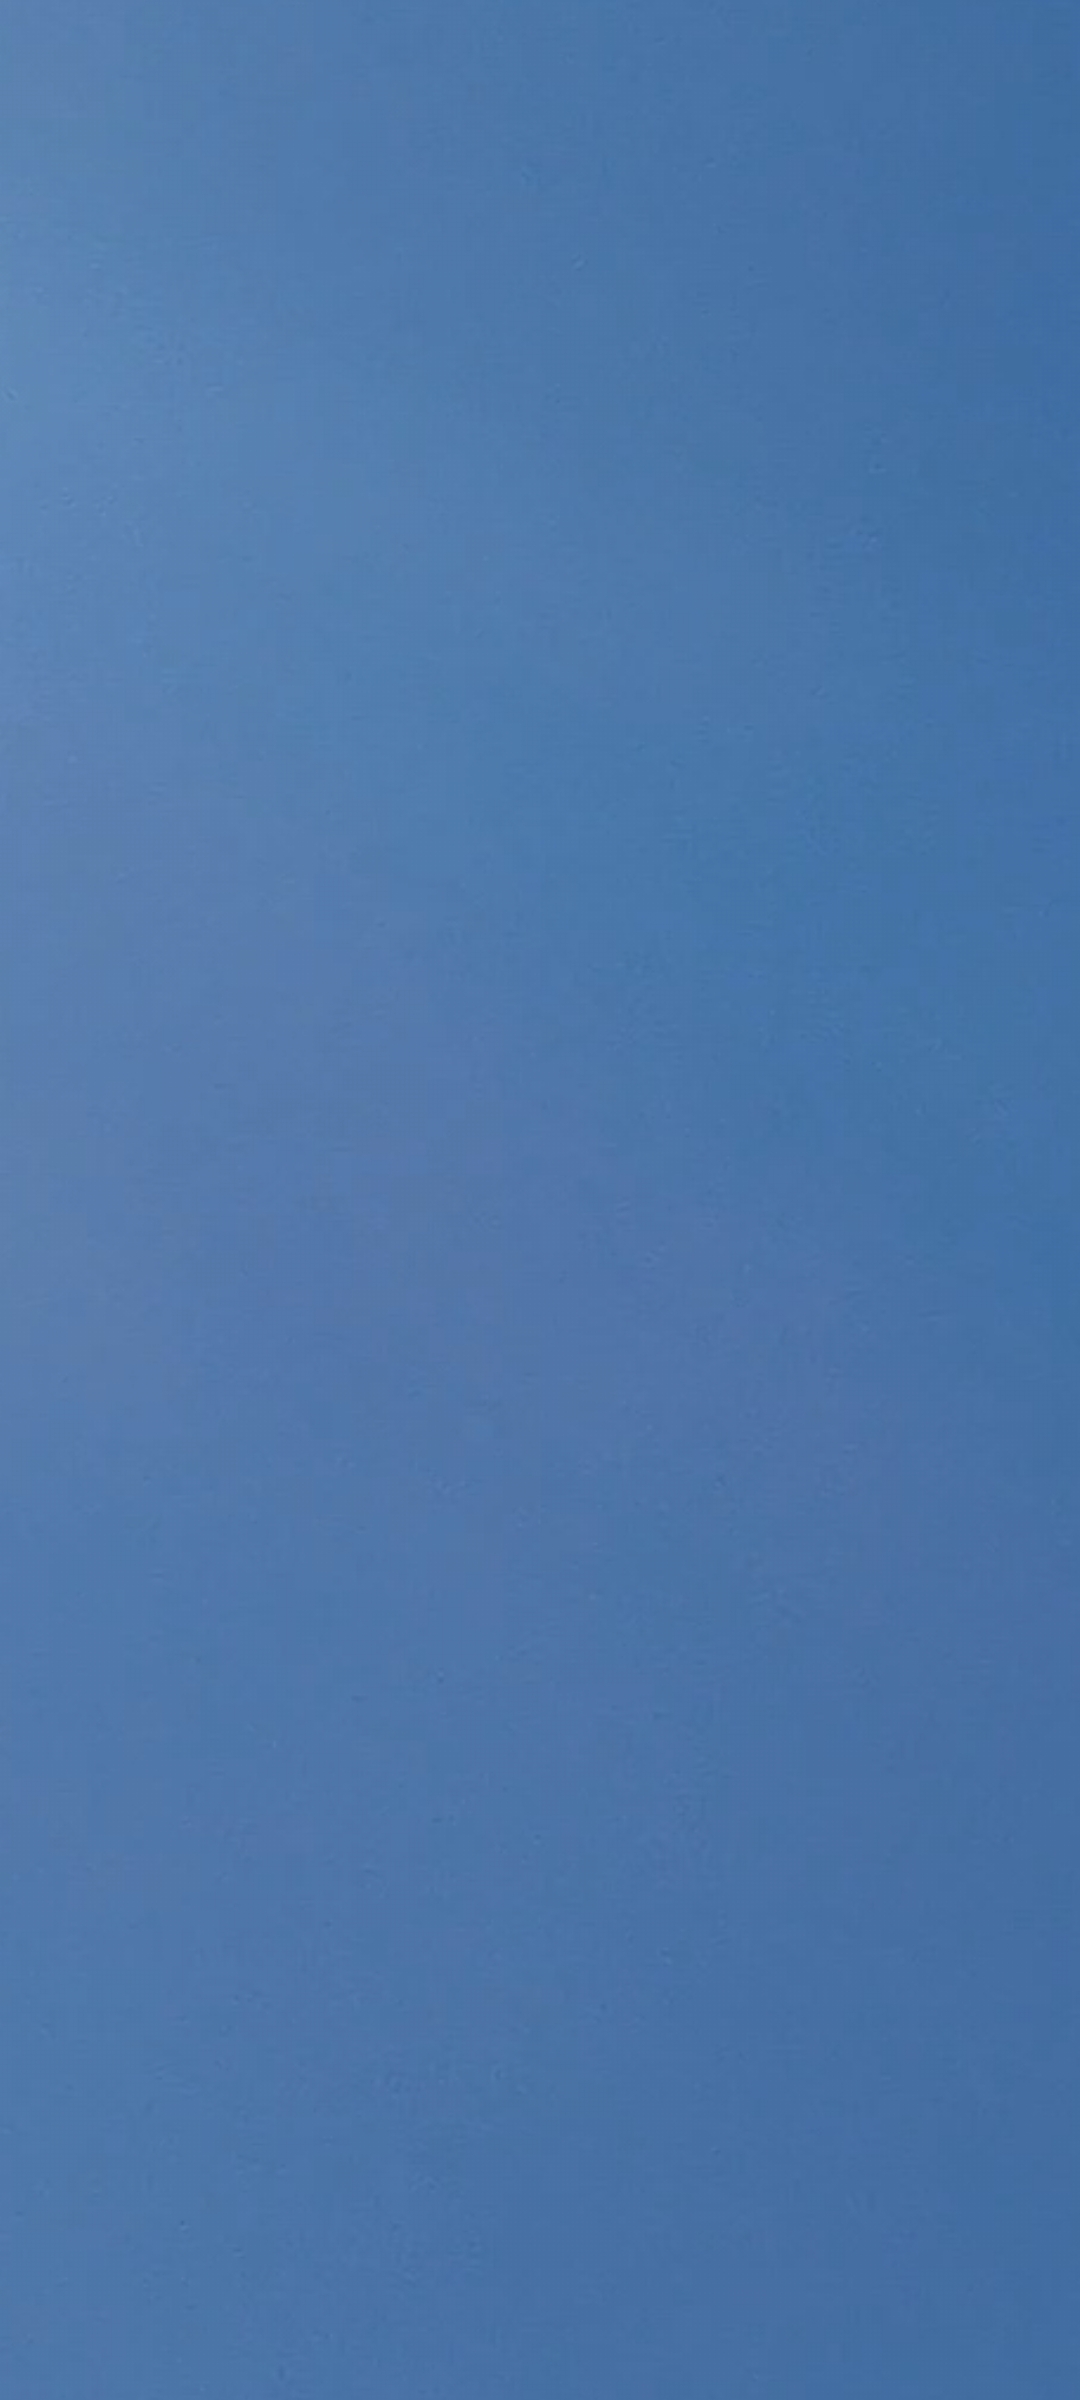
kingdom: Animalia
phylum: Chordata
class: Aves
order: Accipitriformes
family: Accipitridae
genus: Milvus
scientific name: Milvus milvus
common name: Rød glente
